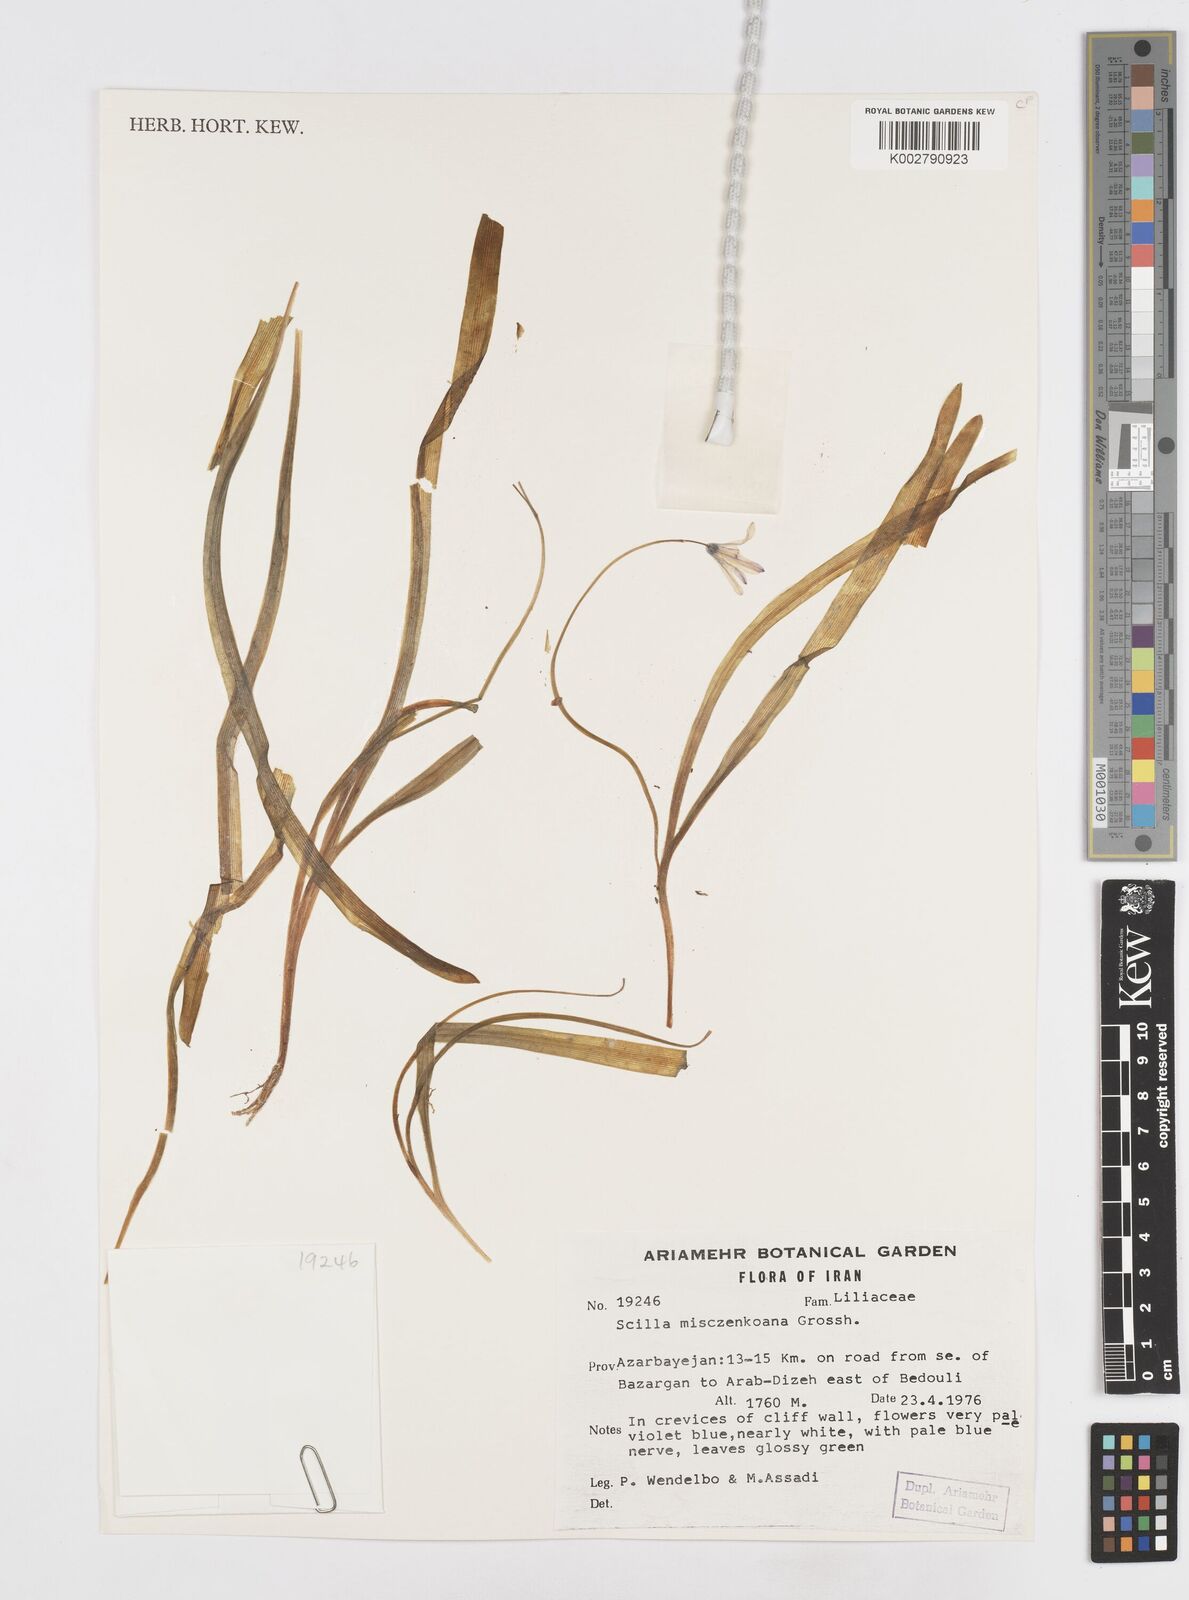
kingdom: Plantae
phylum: Tracheophyta
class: Liliopsida
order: Asparagales
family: Asparagaceae
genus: Scilla
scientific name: Scilla mischtschenkoana
